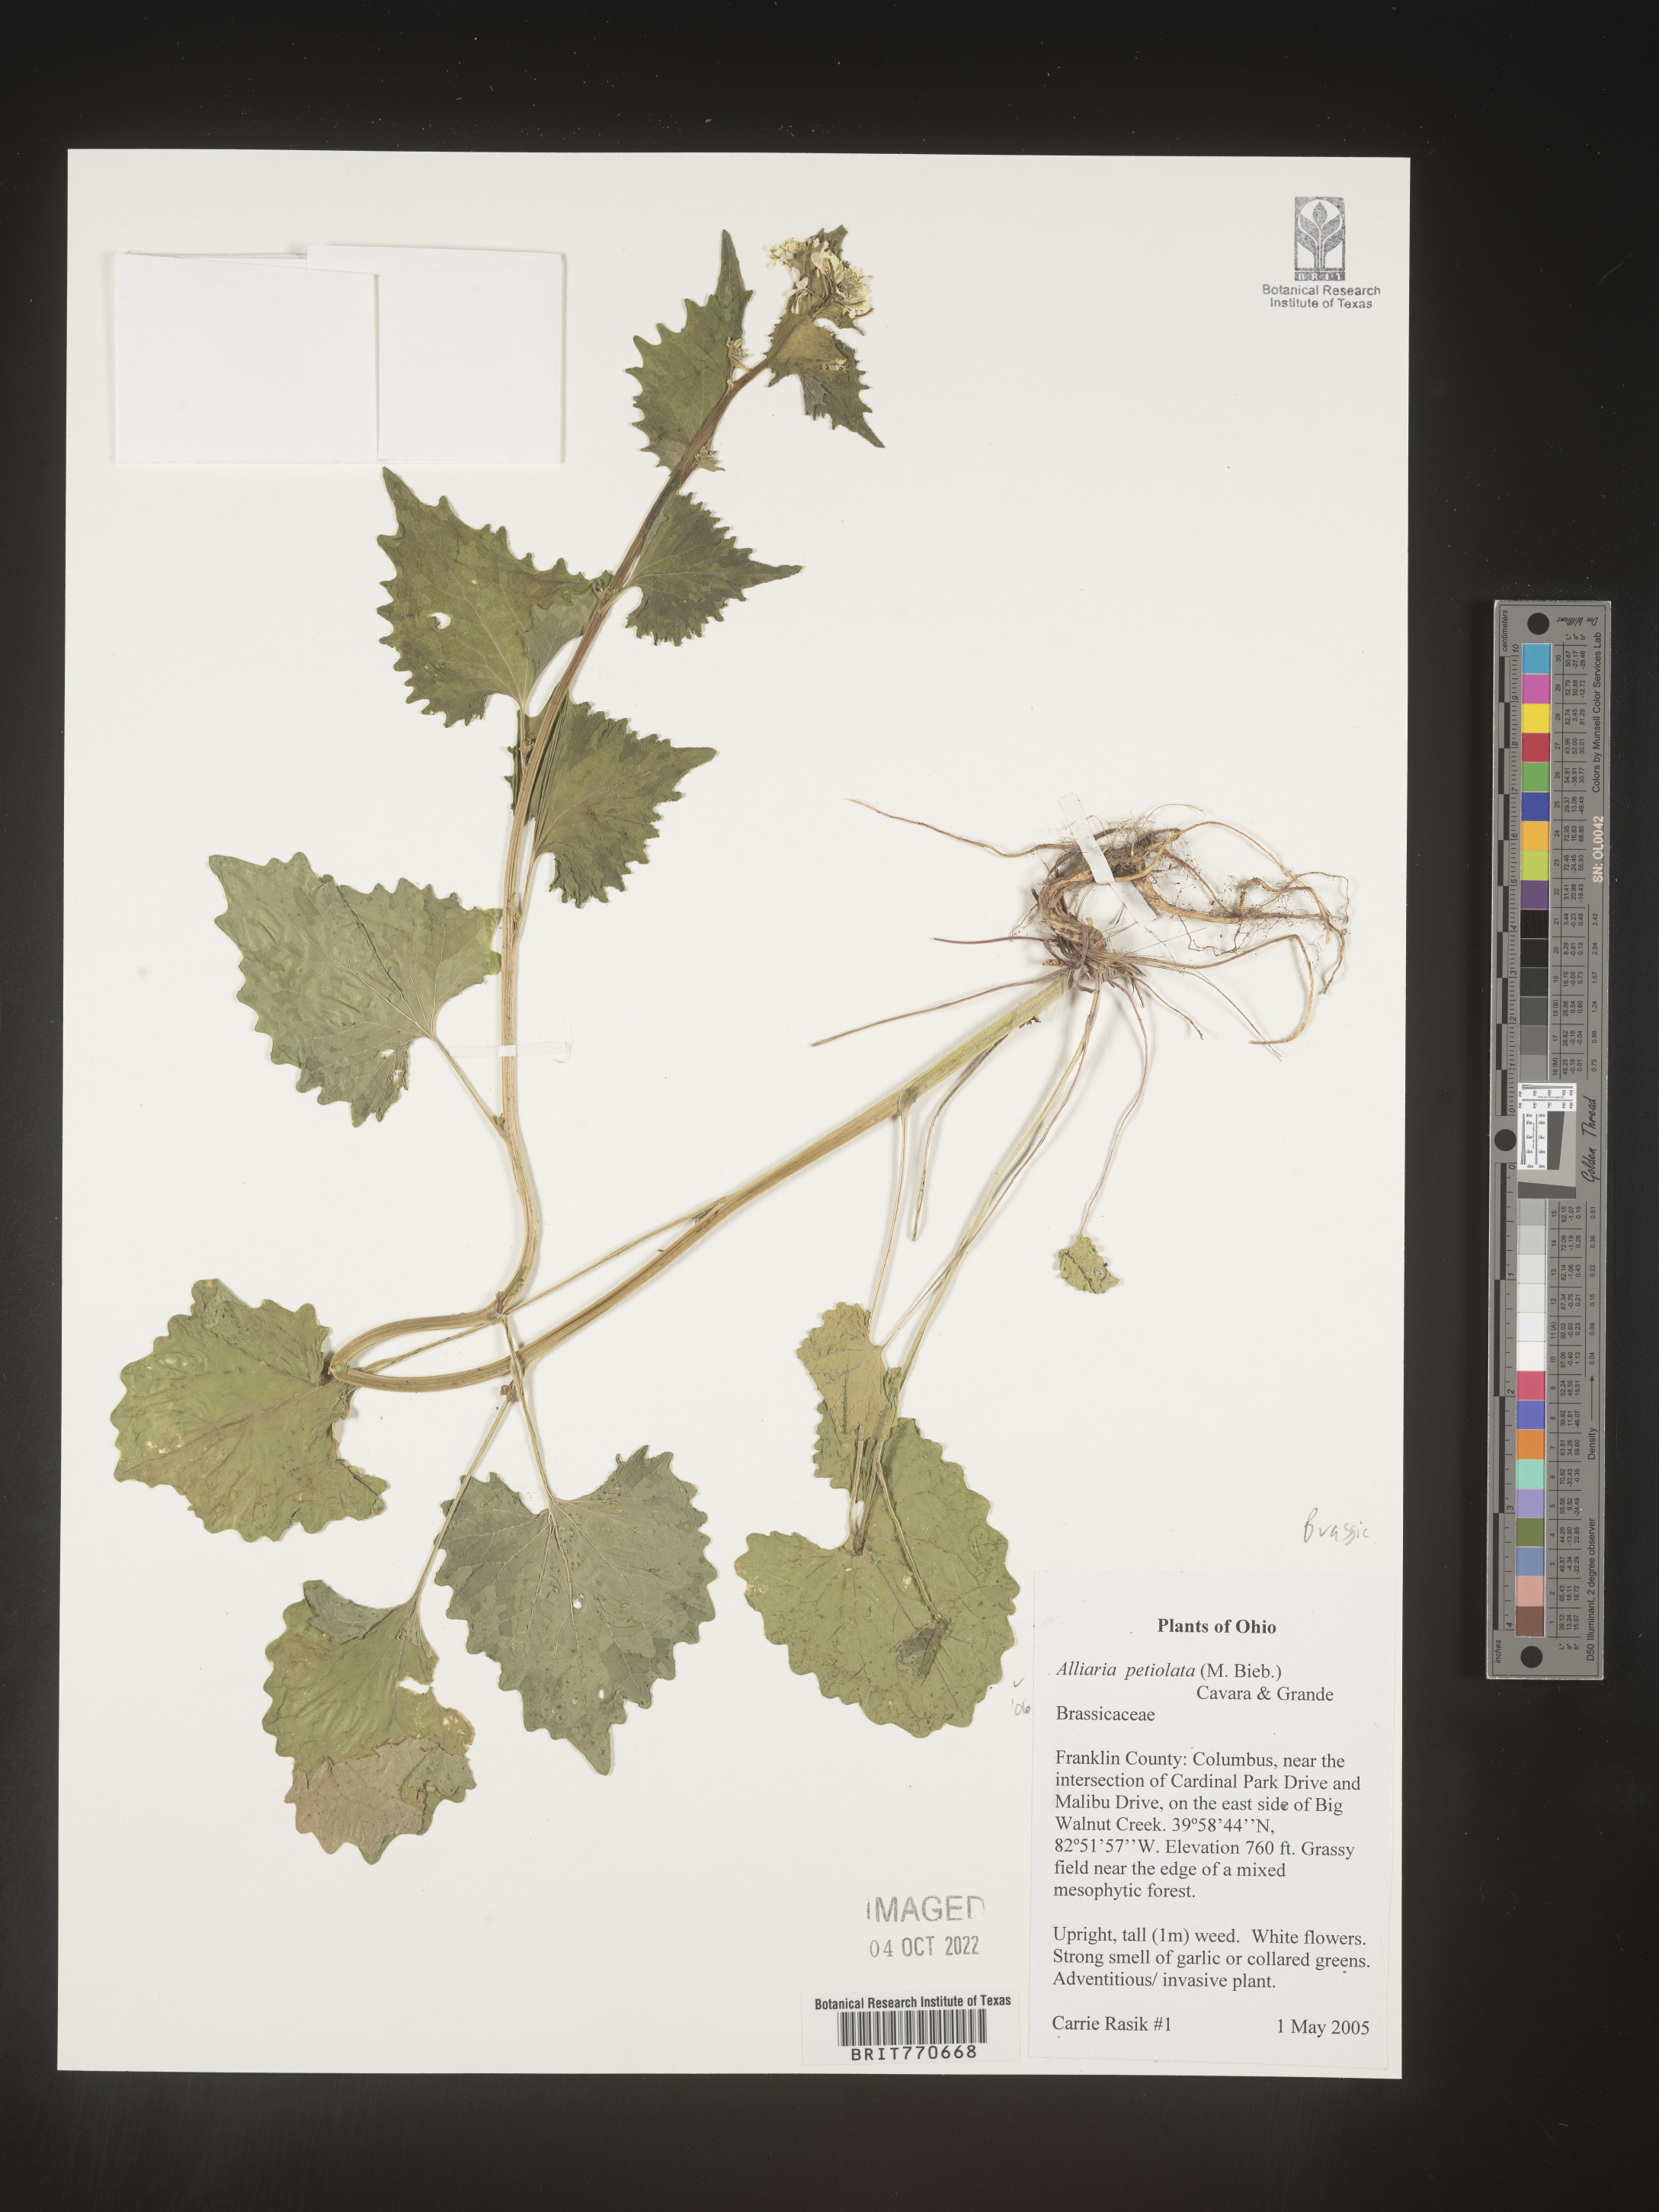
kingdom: Plantae
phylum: Tracheophyta
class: Magnoliopsida
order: Brassicales
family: Brassicaceae
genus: Alliaria
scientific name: Alliaria
